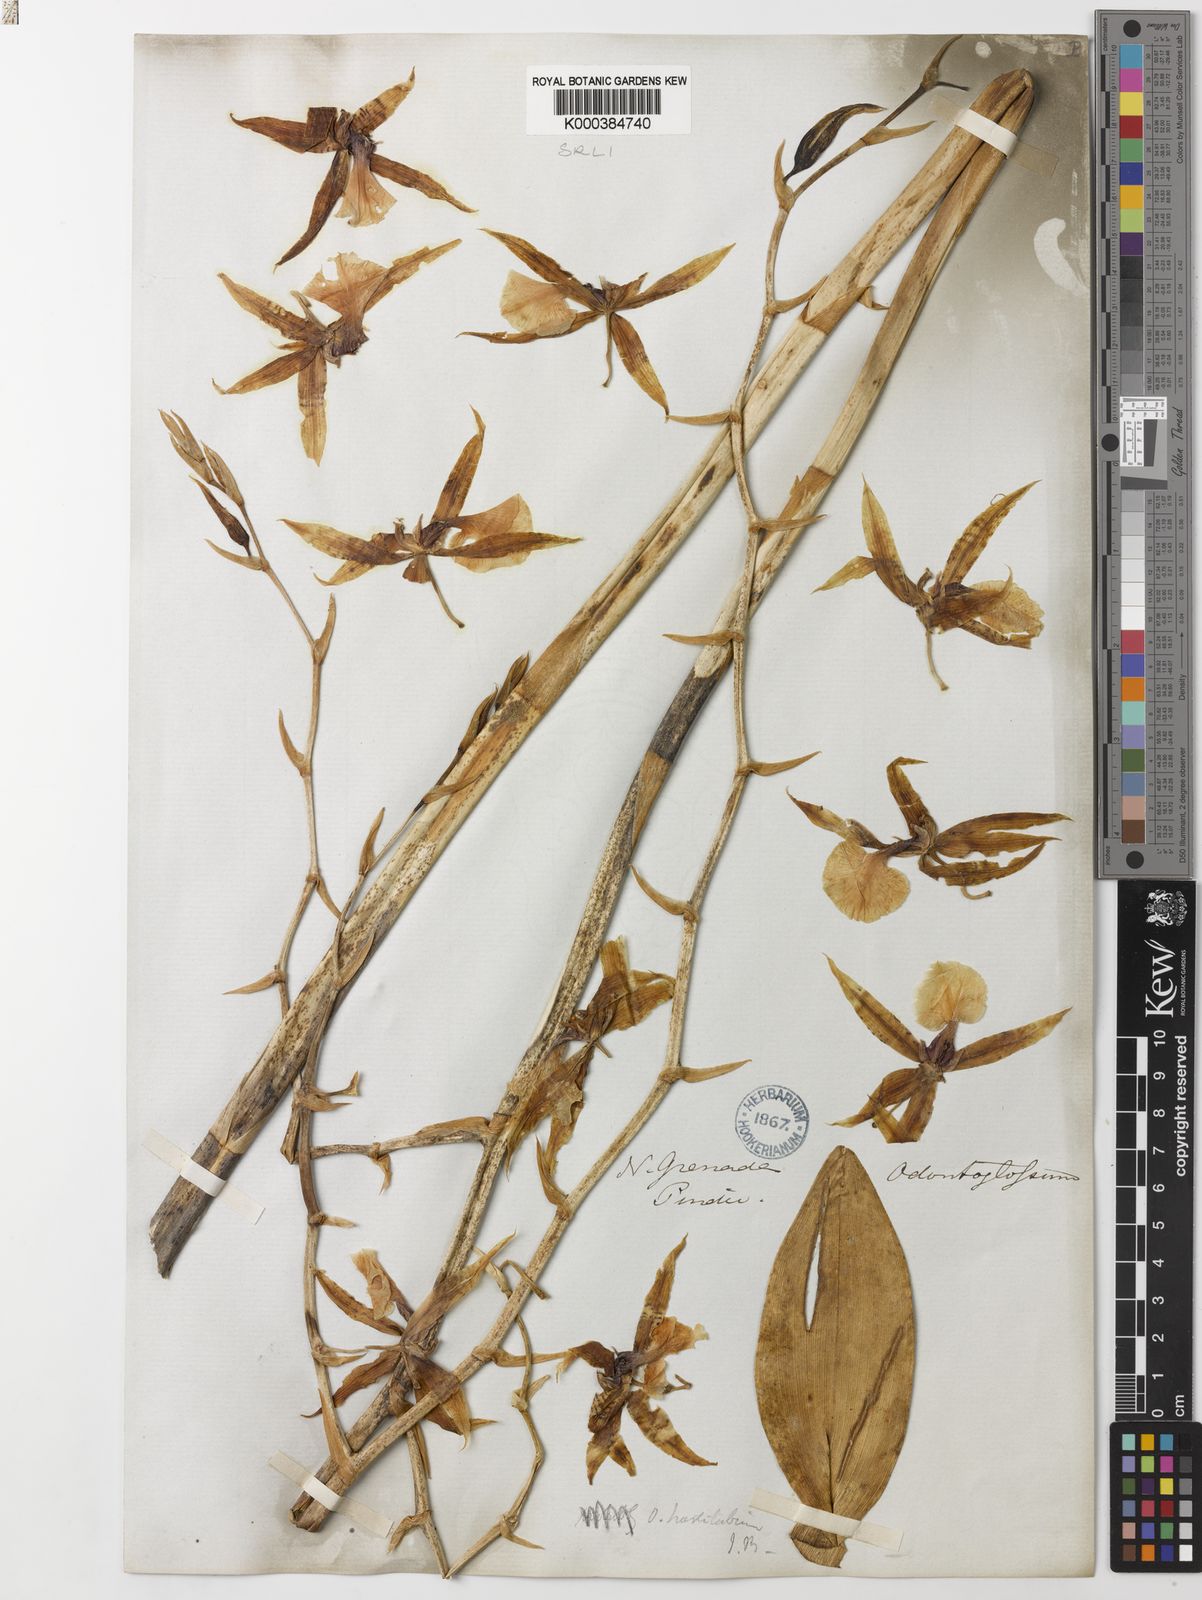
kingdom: Plantae
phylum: Tracheophyta
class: Liliopsida
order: Asparagales
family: Orchidaceae
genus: Oncidium
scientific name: Oncidium hastilabium
